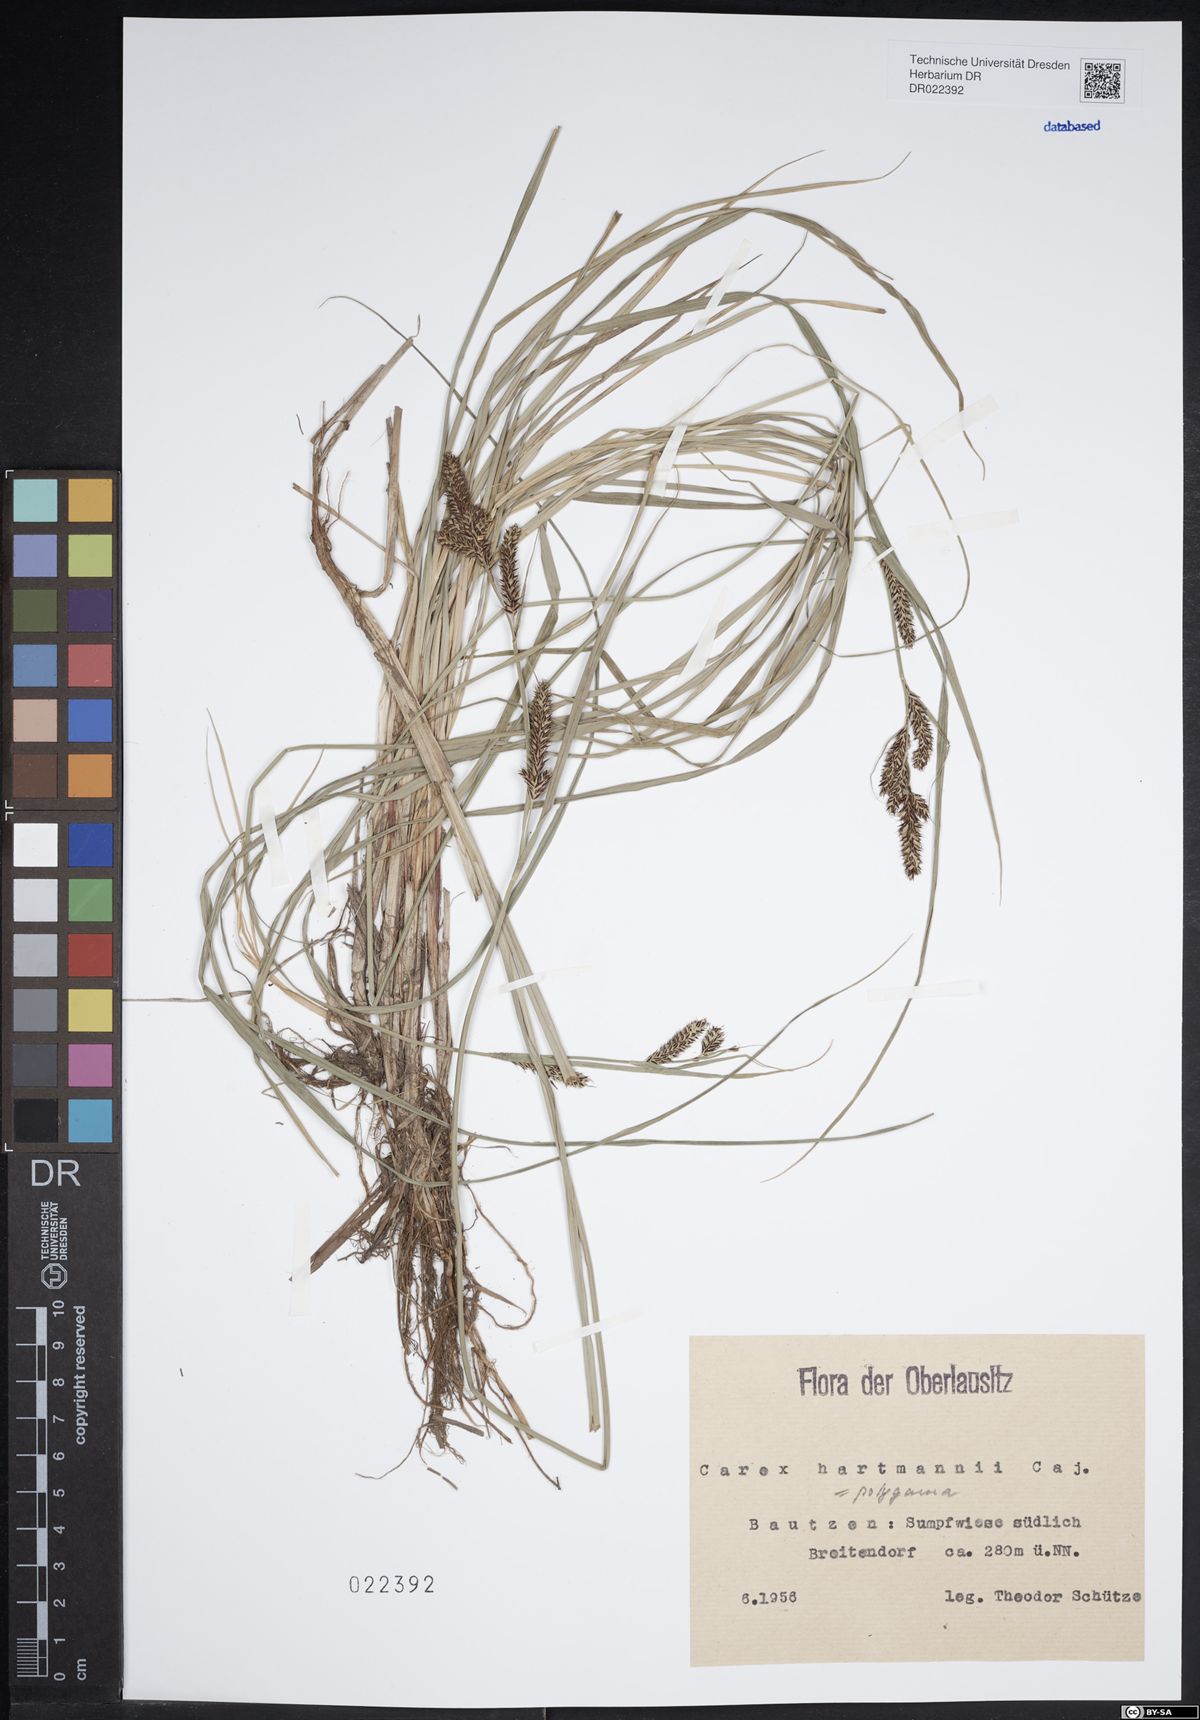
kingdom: Plantae
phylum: Tracheophyta
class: Liliopsida
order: Poales
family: Cyperaceae
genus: Carex
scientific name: Carex hartmaniorum
